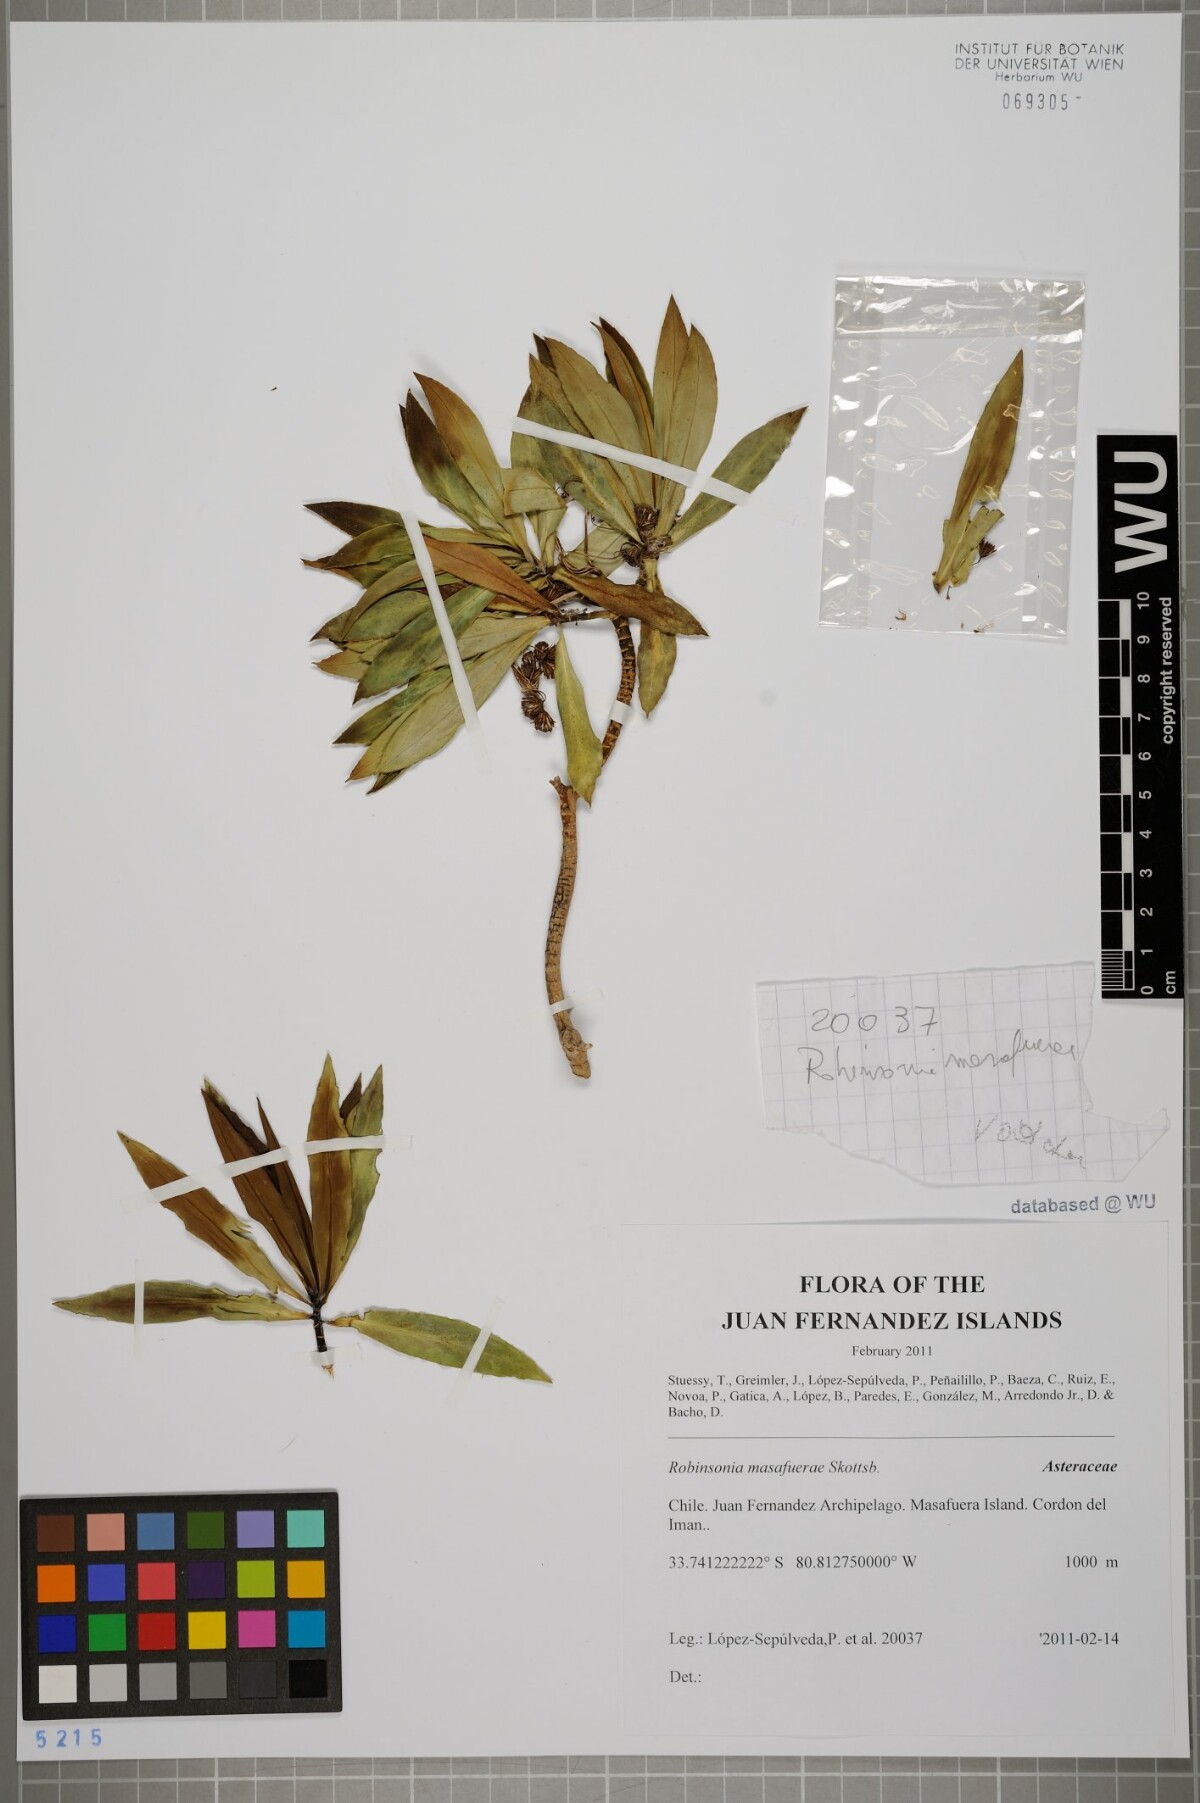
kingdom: Plantae
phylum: Tracheophyta
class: Magnoliopsida
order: Asterales
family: Asteraceae
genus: Robinsonia
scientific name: Robinsonia masafuerae
